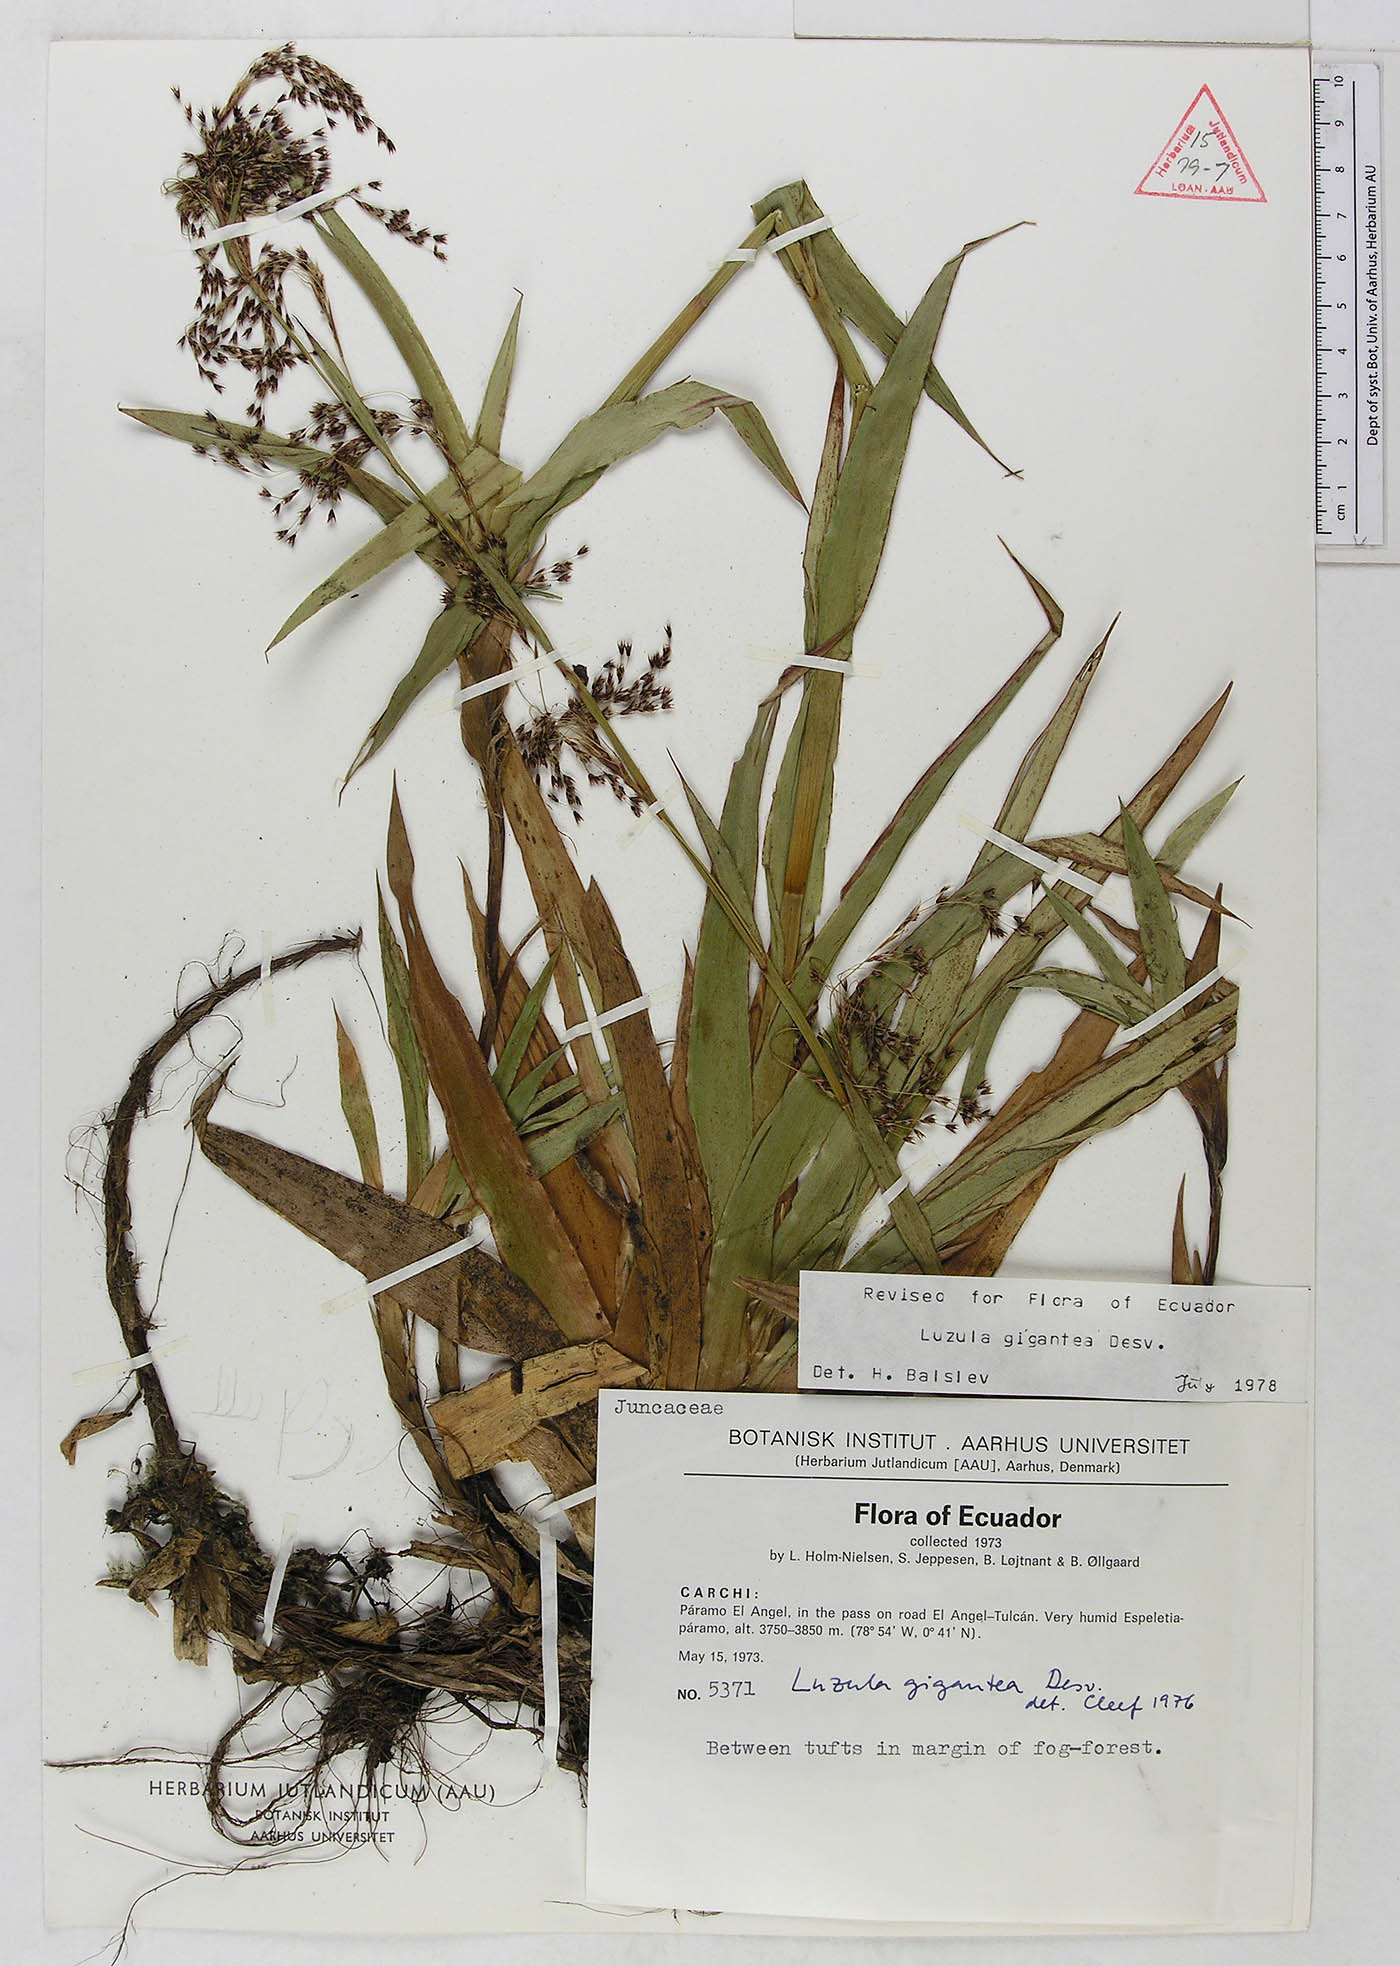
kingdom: Plantae
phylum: Tracheophyta
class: Liliopsida
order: Poales
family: Juncaceae
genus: Luzula
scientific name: Luzula gigantea
